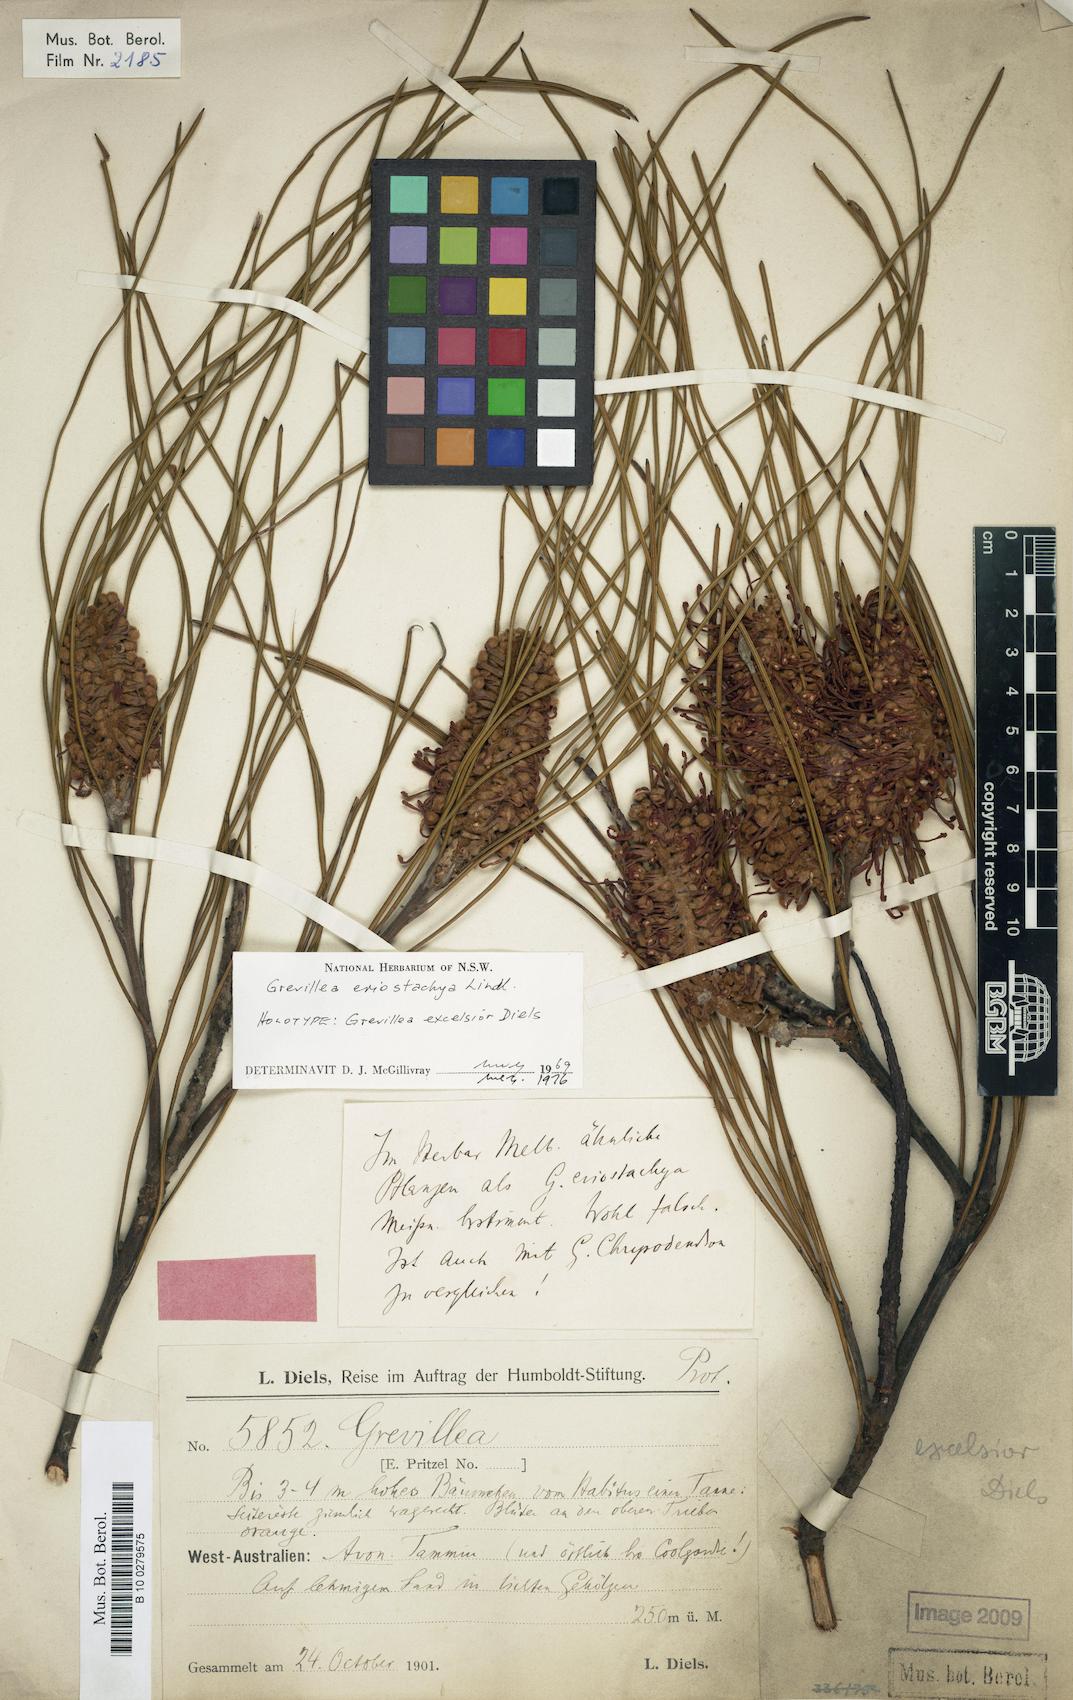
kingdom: Plantae
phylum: Tracheophyta
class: Magnoliopsida
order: Proteales
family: Proteaceae
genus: Grevillea
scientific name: Grevillea eriostachya
